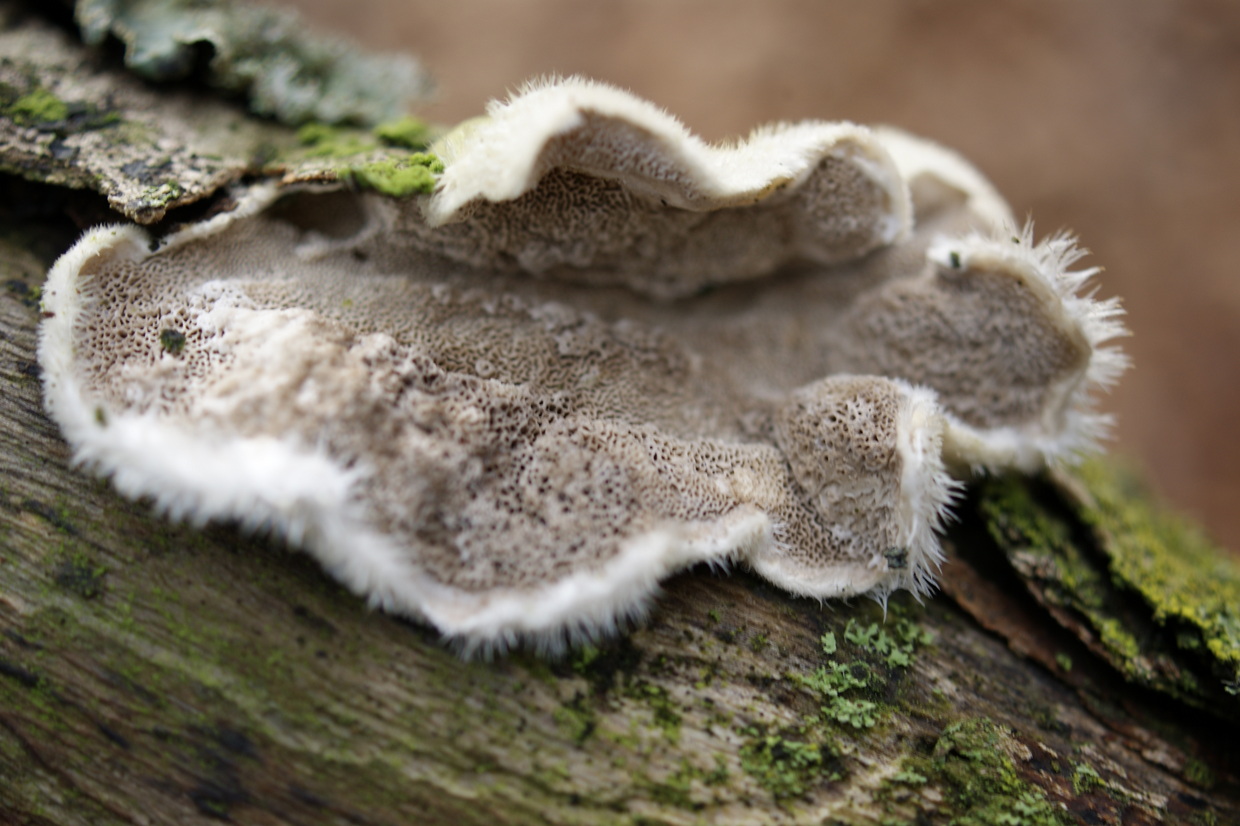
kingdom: Fungi
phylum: Basidiomycota
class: Agaricomycetes
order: Polyporales
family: Polyporaceae
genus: Trametes
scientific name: Trametes hirsuta
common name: håret læderporesvamp
